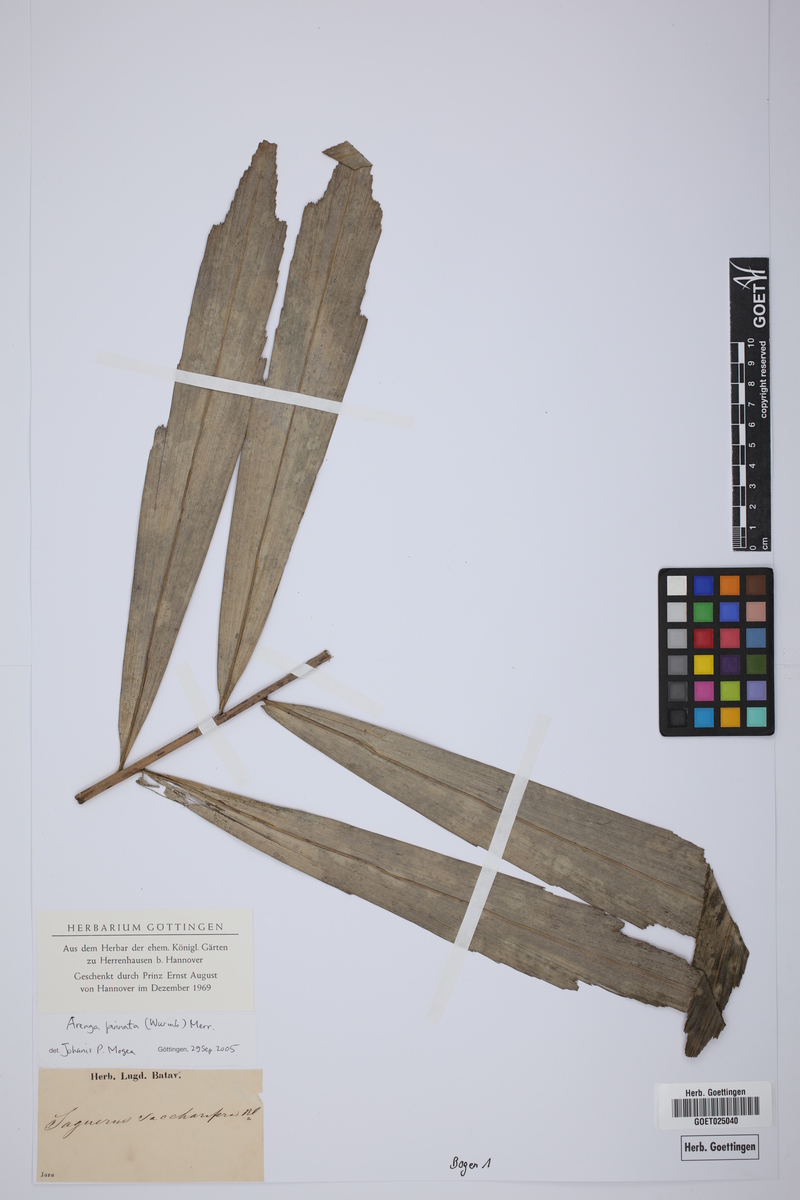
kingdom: Plantae
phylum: Tracheophyta
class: Liliopsida
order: Arecales
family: Arecaceae
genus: Arenga
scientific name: Arenga pinnata
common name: Black-fiber palm
